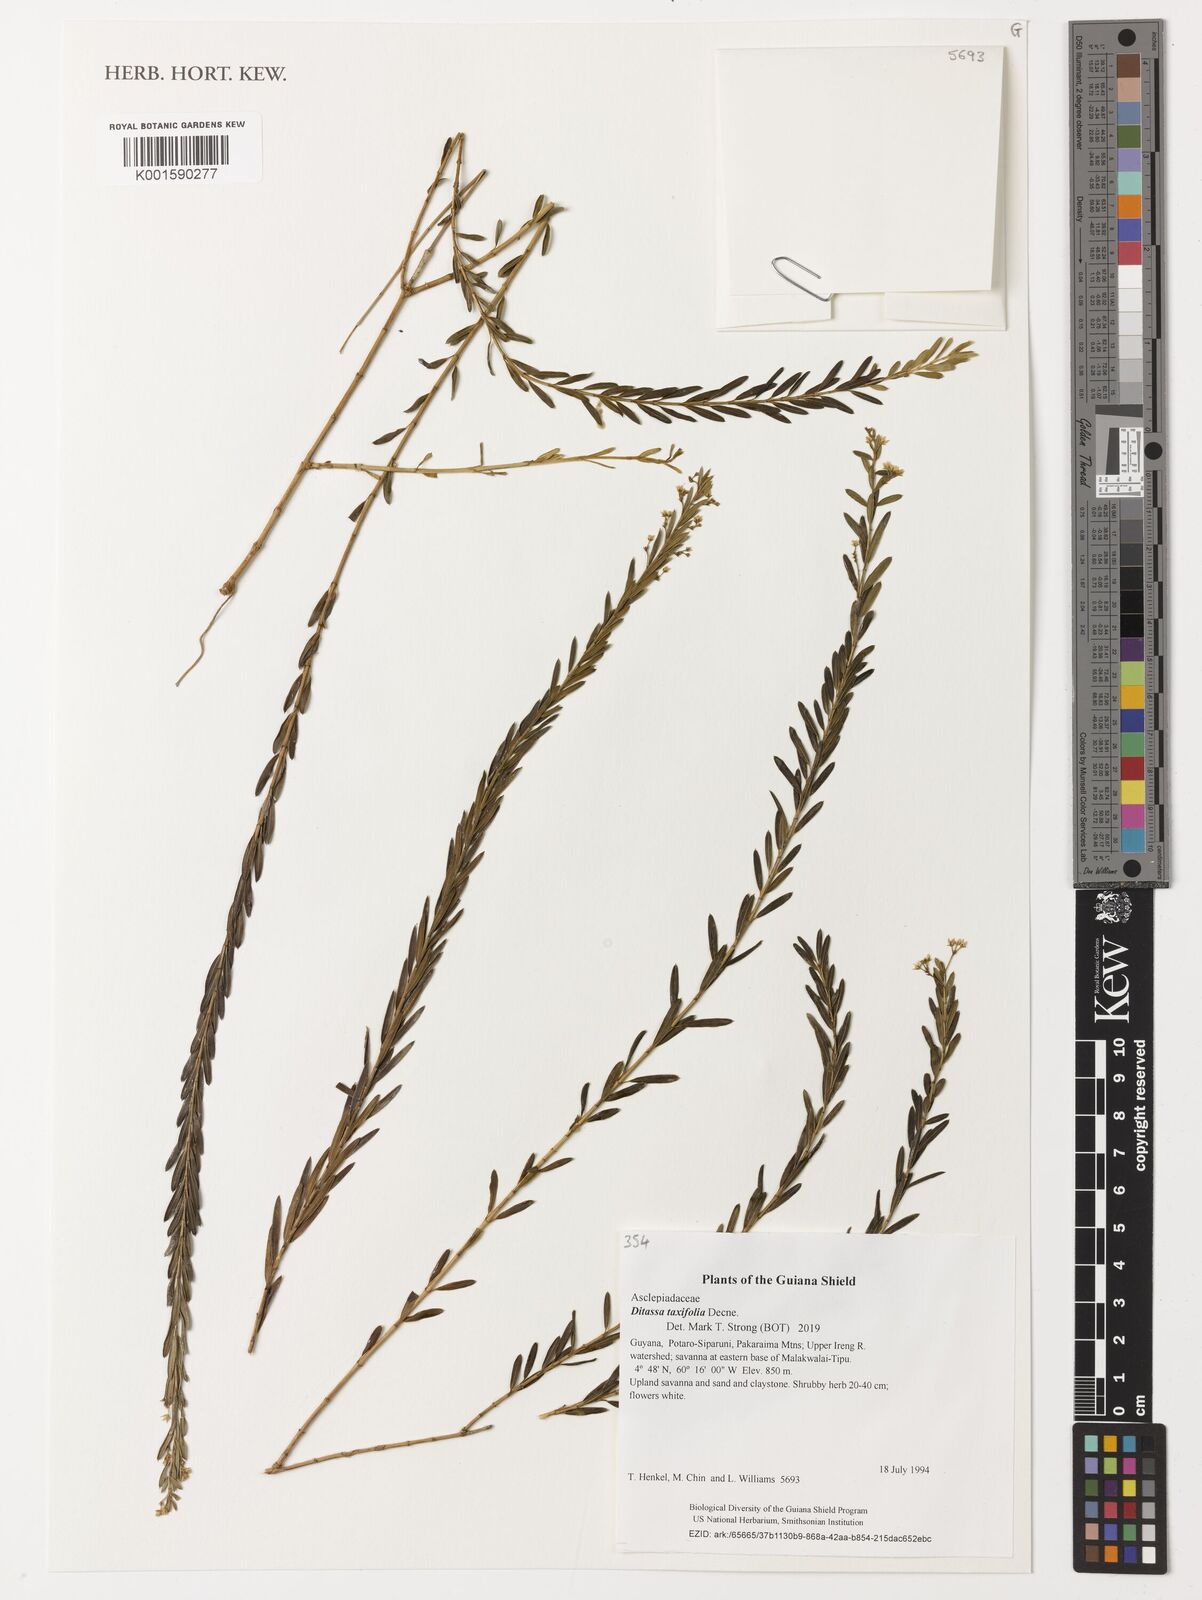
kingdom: Plantae
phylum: Tracheophyta
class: Magnoliopsida
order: Gentianales
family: Apocynaceae
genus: Ditassa
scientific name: Ditassa taxifolia
